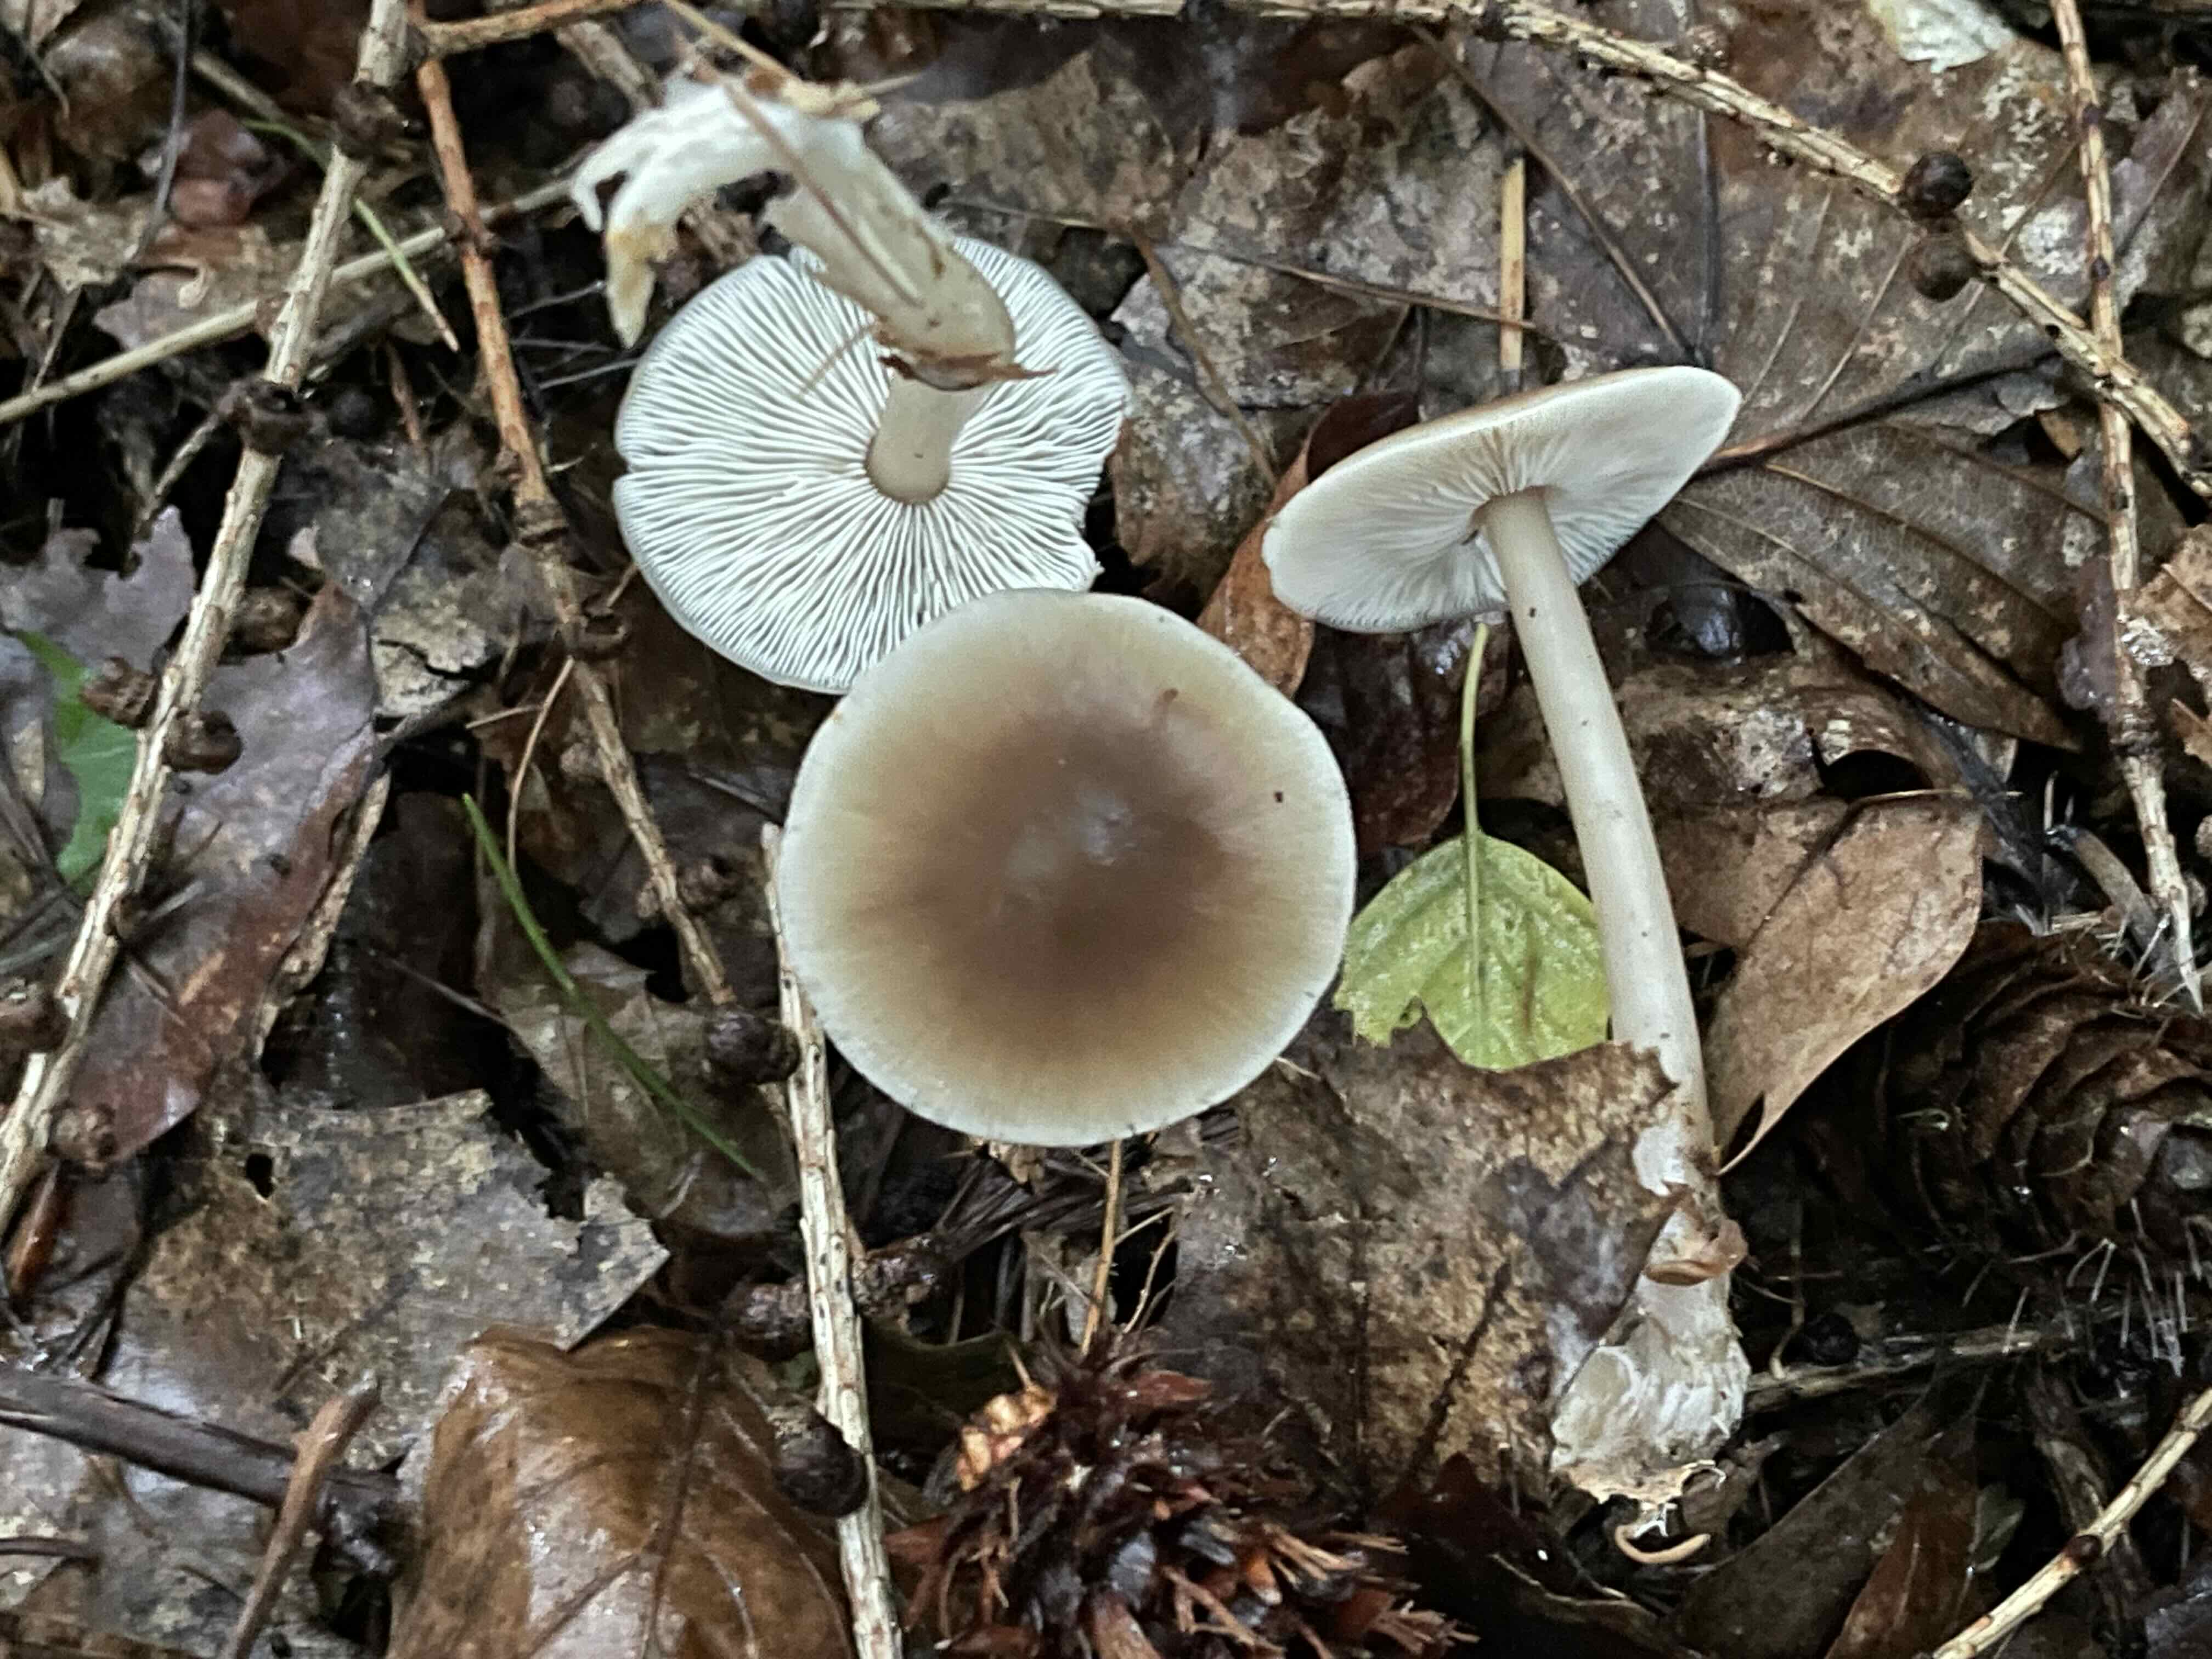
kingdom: Fungi
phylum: Basidiomycota
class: Agaricomycetes
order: Agaricales
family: Omphalotaceae
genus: Rhodocollybia
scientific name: Rhodocollybia asema
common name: horngrå fladhat
